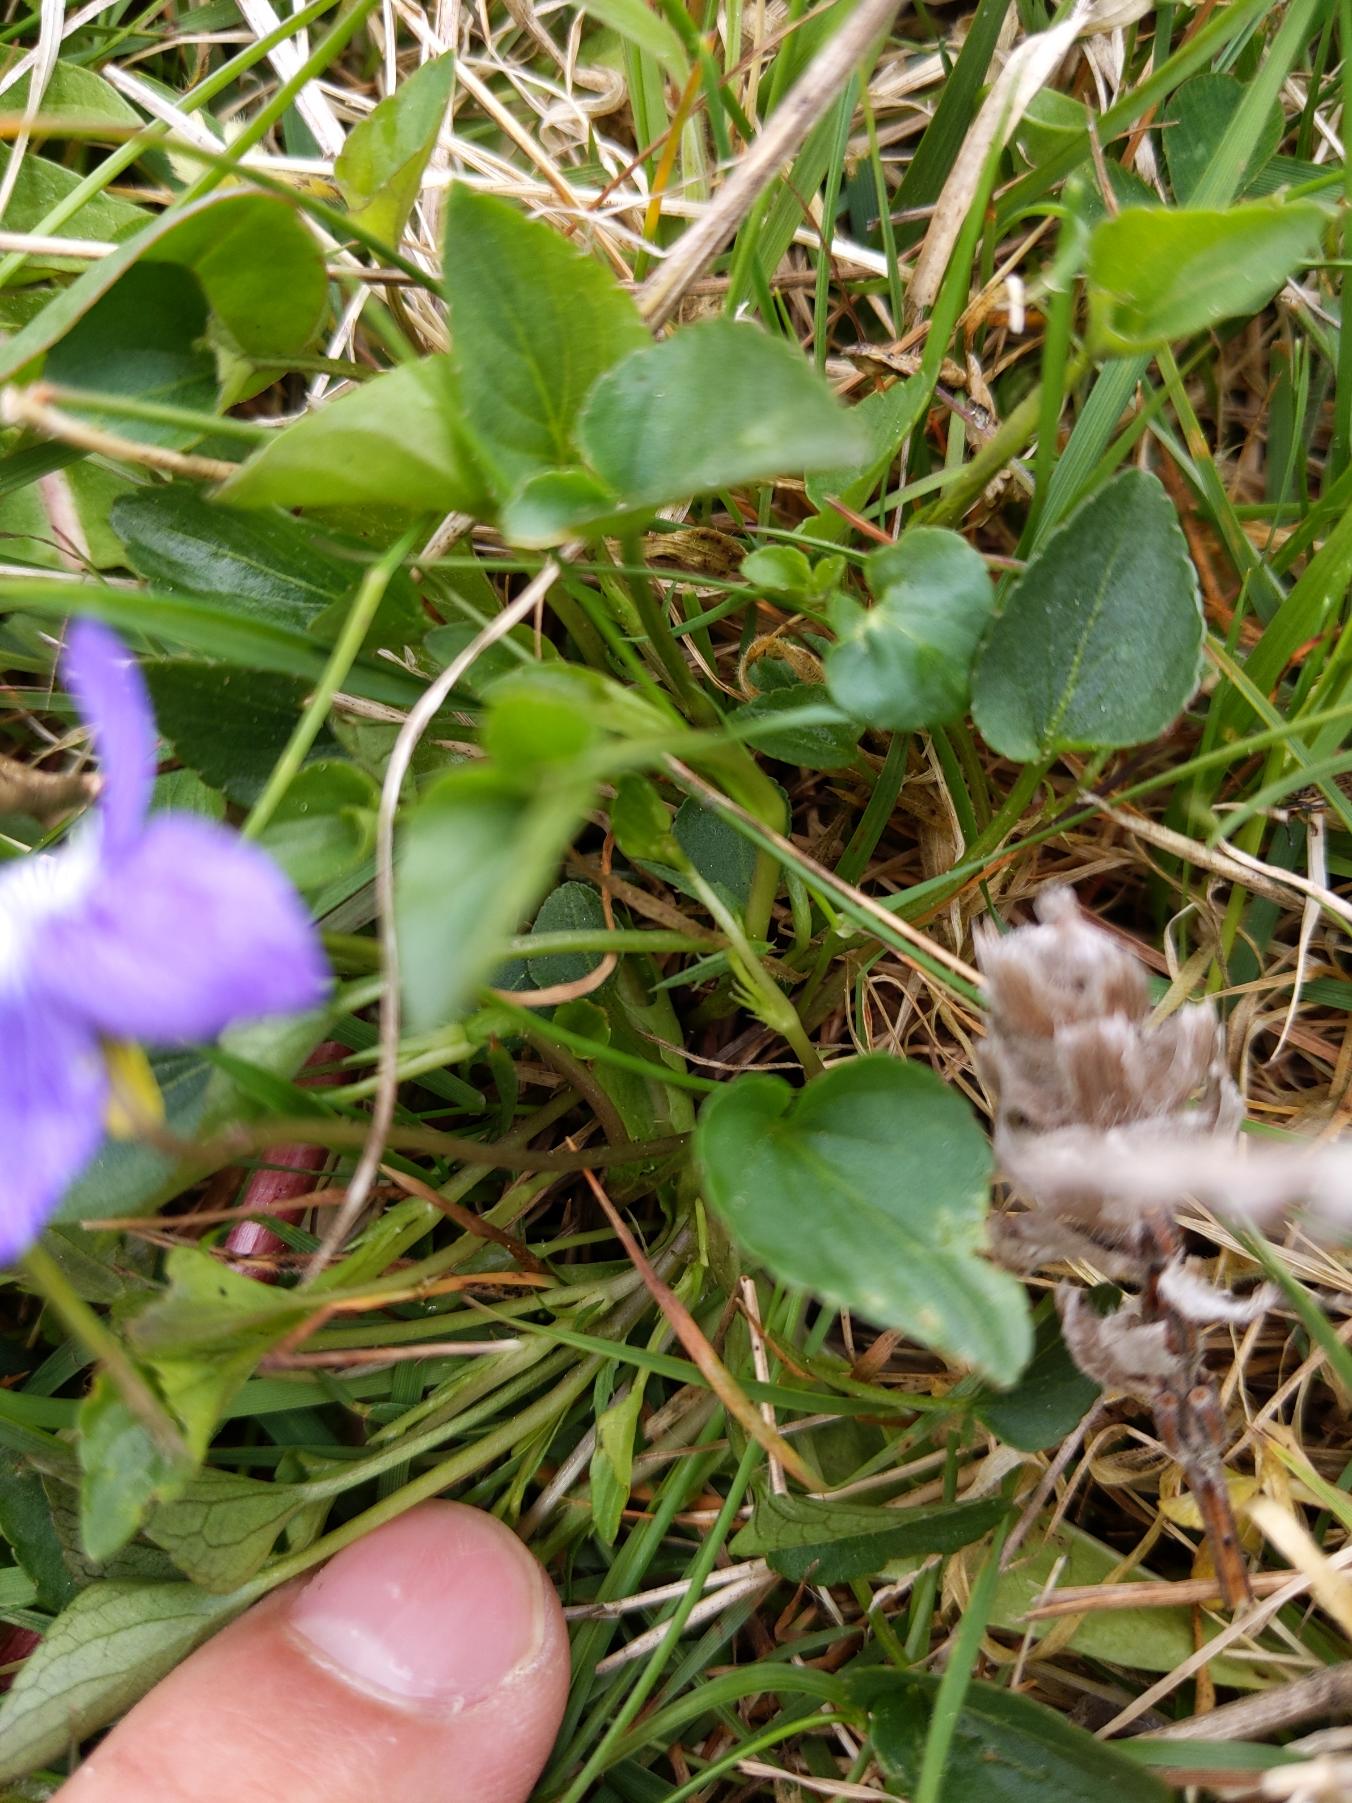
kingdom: Plantae
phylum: Tracheophyta
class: Magnoliopsida
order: Malpighiales
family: Violaceae
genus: Viola
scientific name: Viola canina
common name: Hunde-viol
